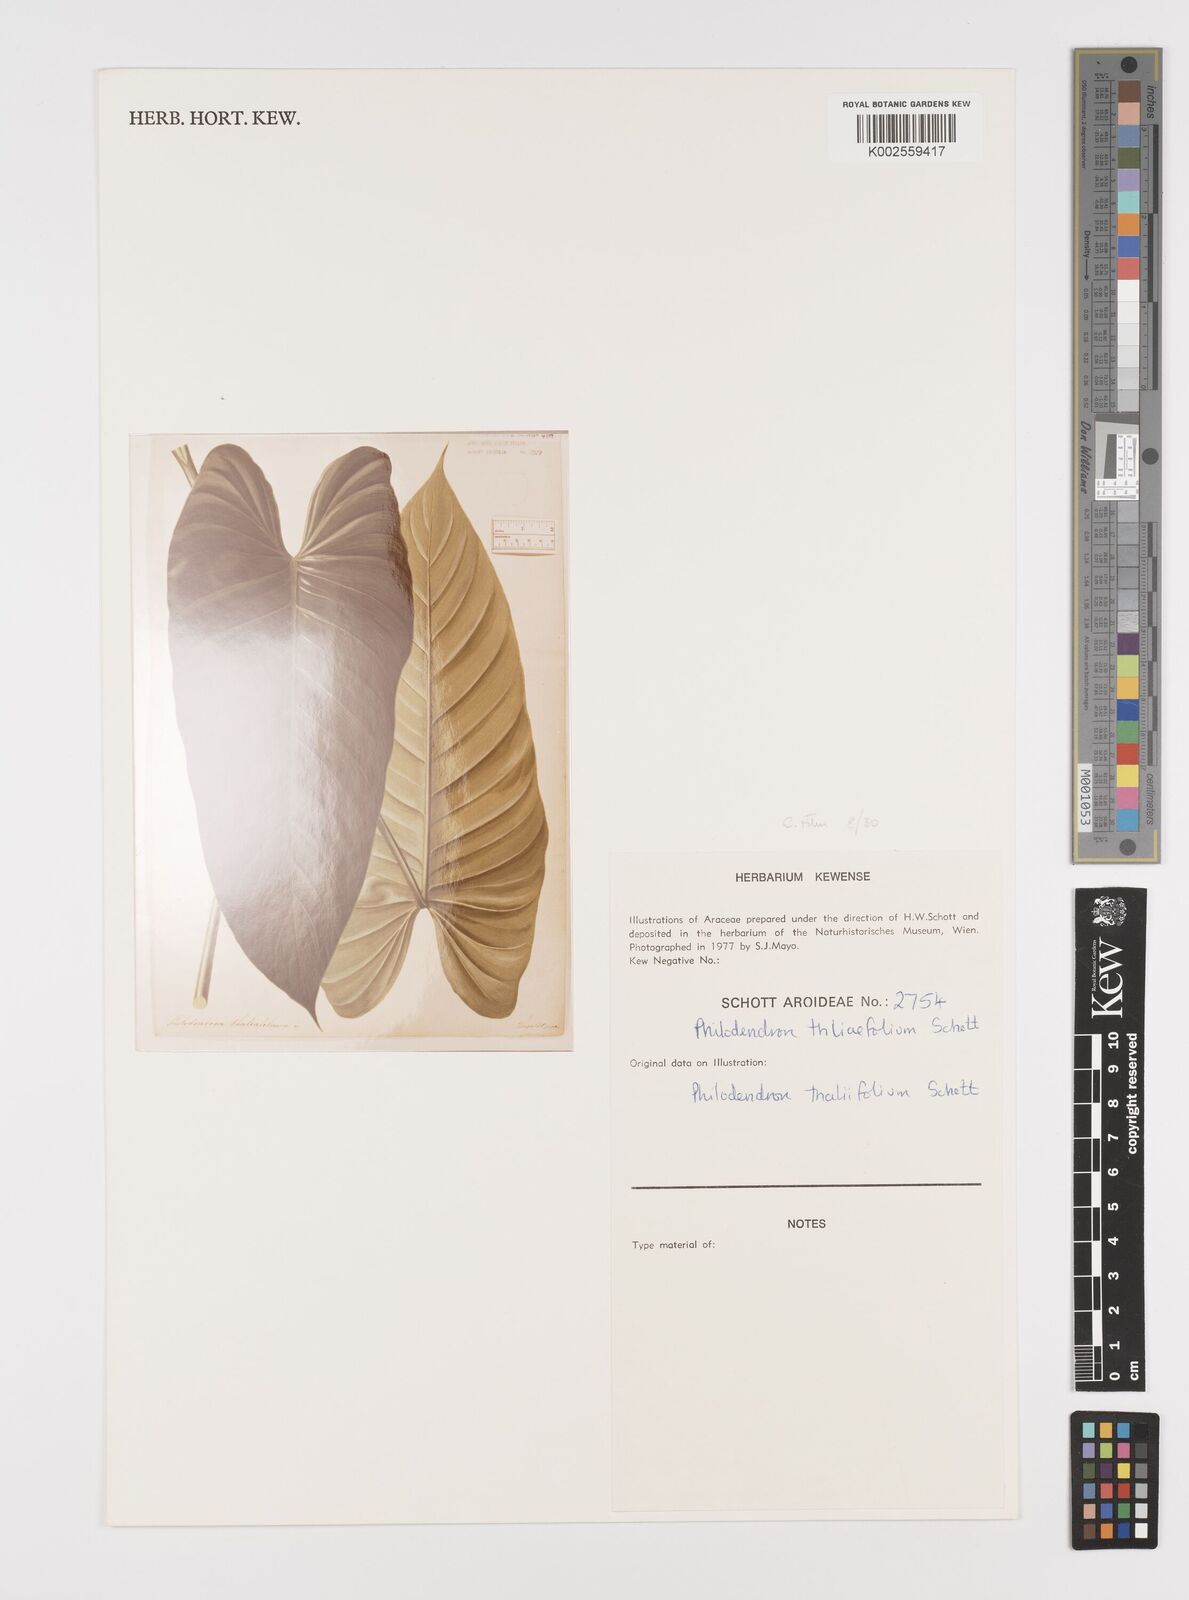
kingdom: Plantae
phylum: Tracheophyta
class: Liliopsida
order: Alismatales
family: Araceae
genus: Philodendron
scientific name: Philodendron thaliifolium
